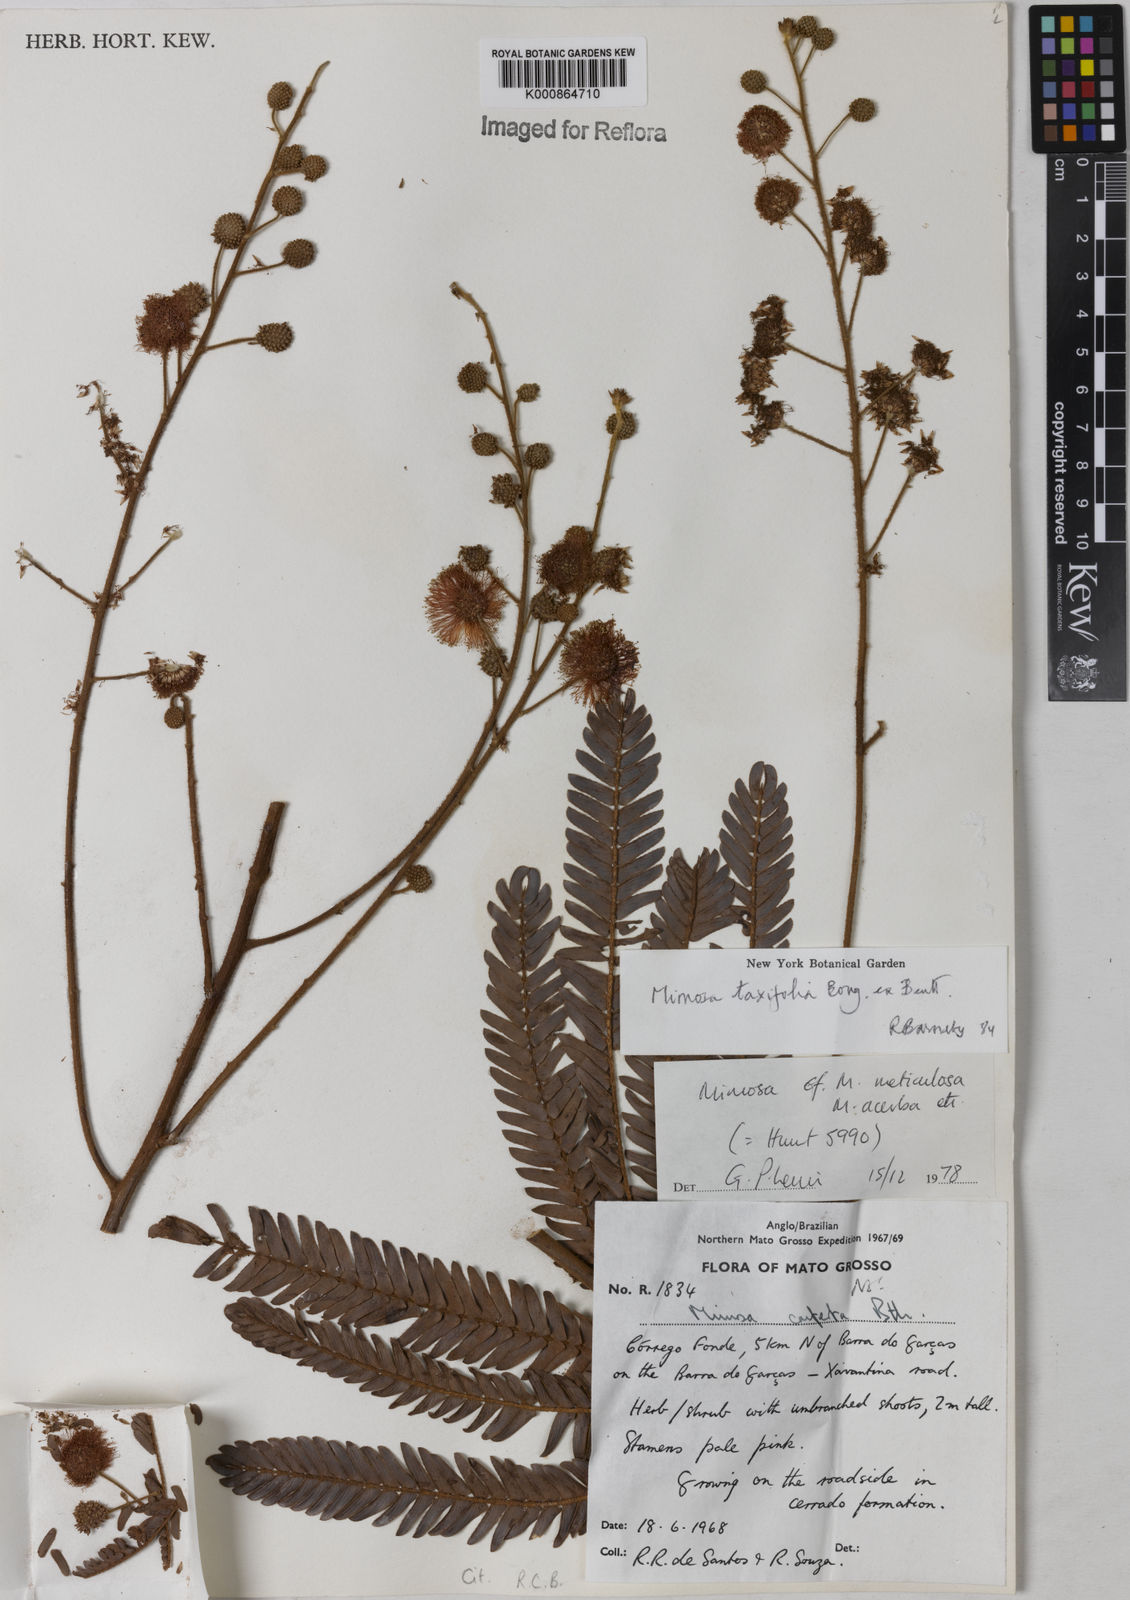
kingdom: Plantae
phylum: Tracheophyta
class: Magnoliopsida
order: Fabales
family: Fabaceae
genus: Mimosa
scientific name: Mimosa polycephala
